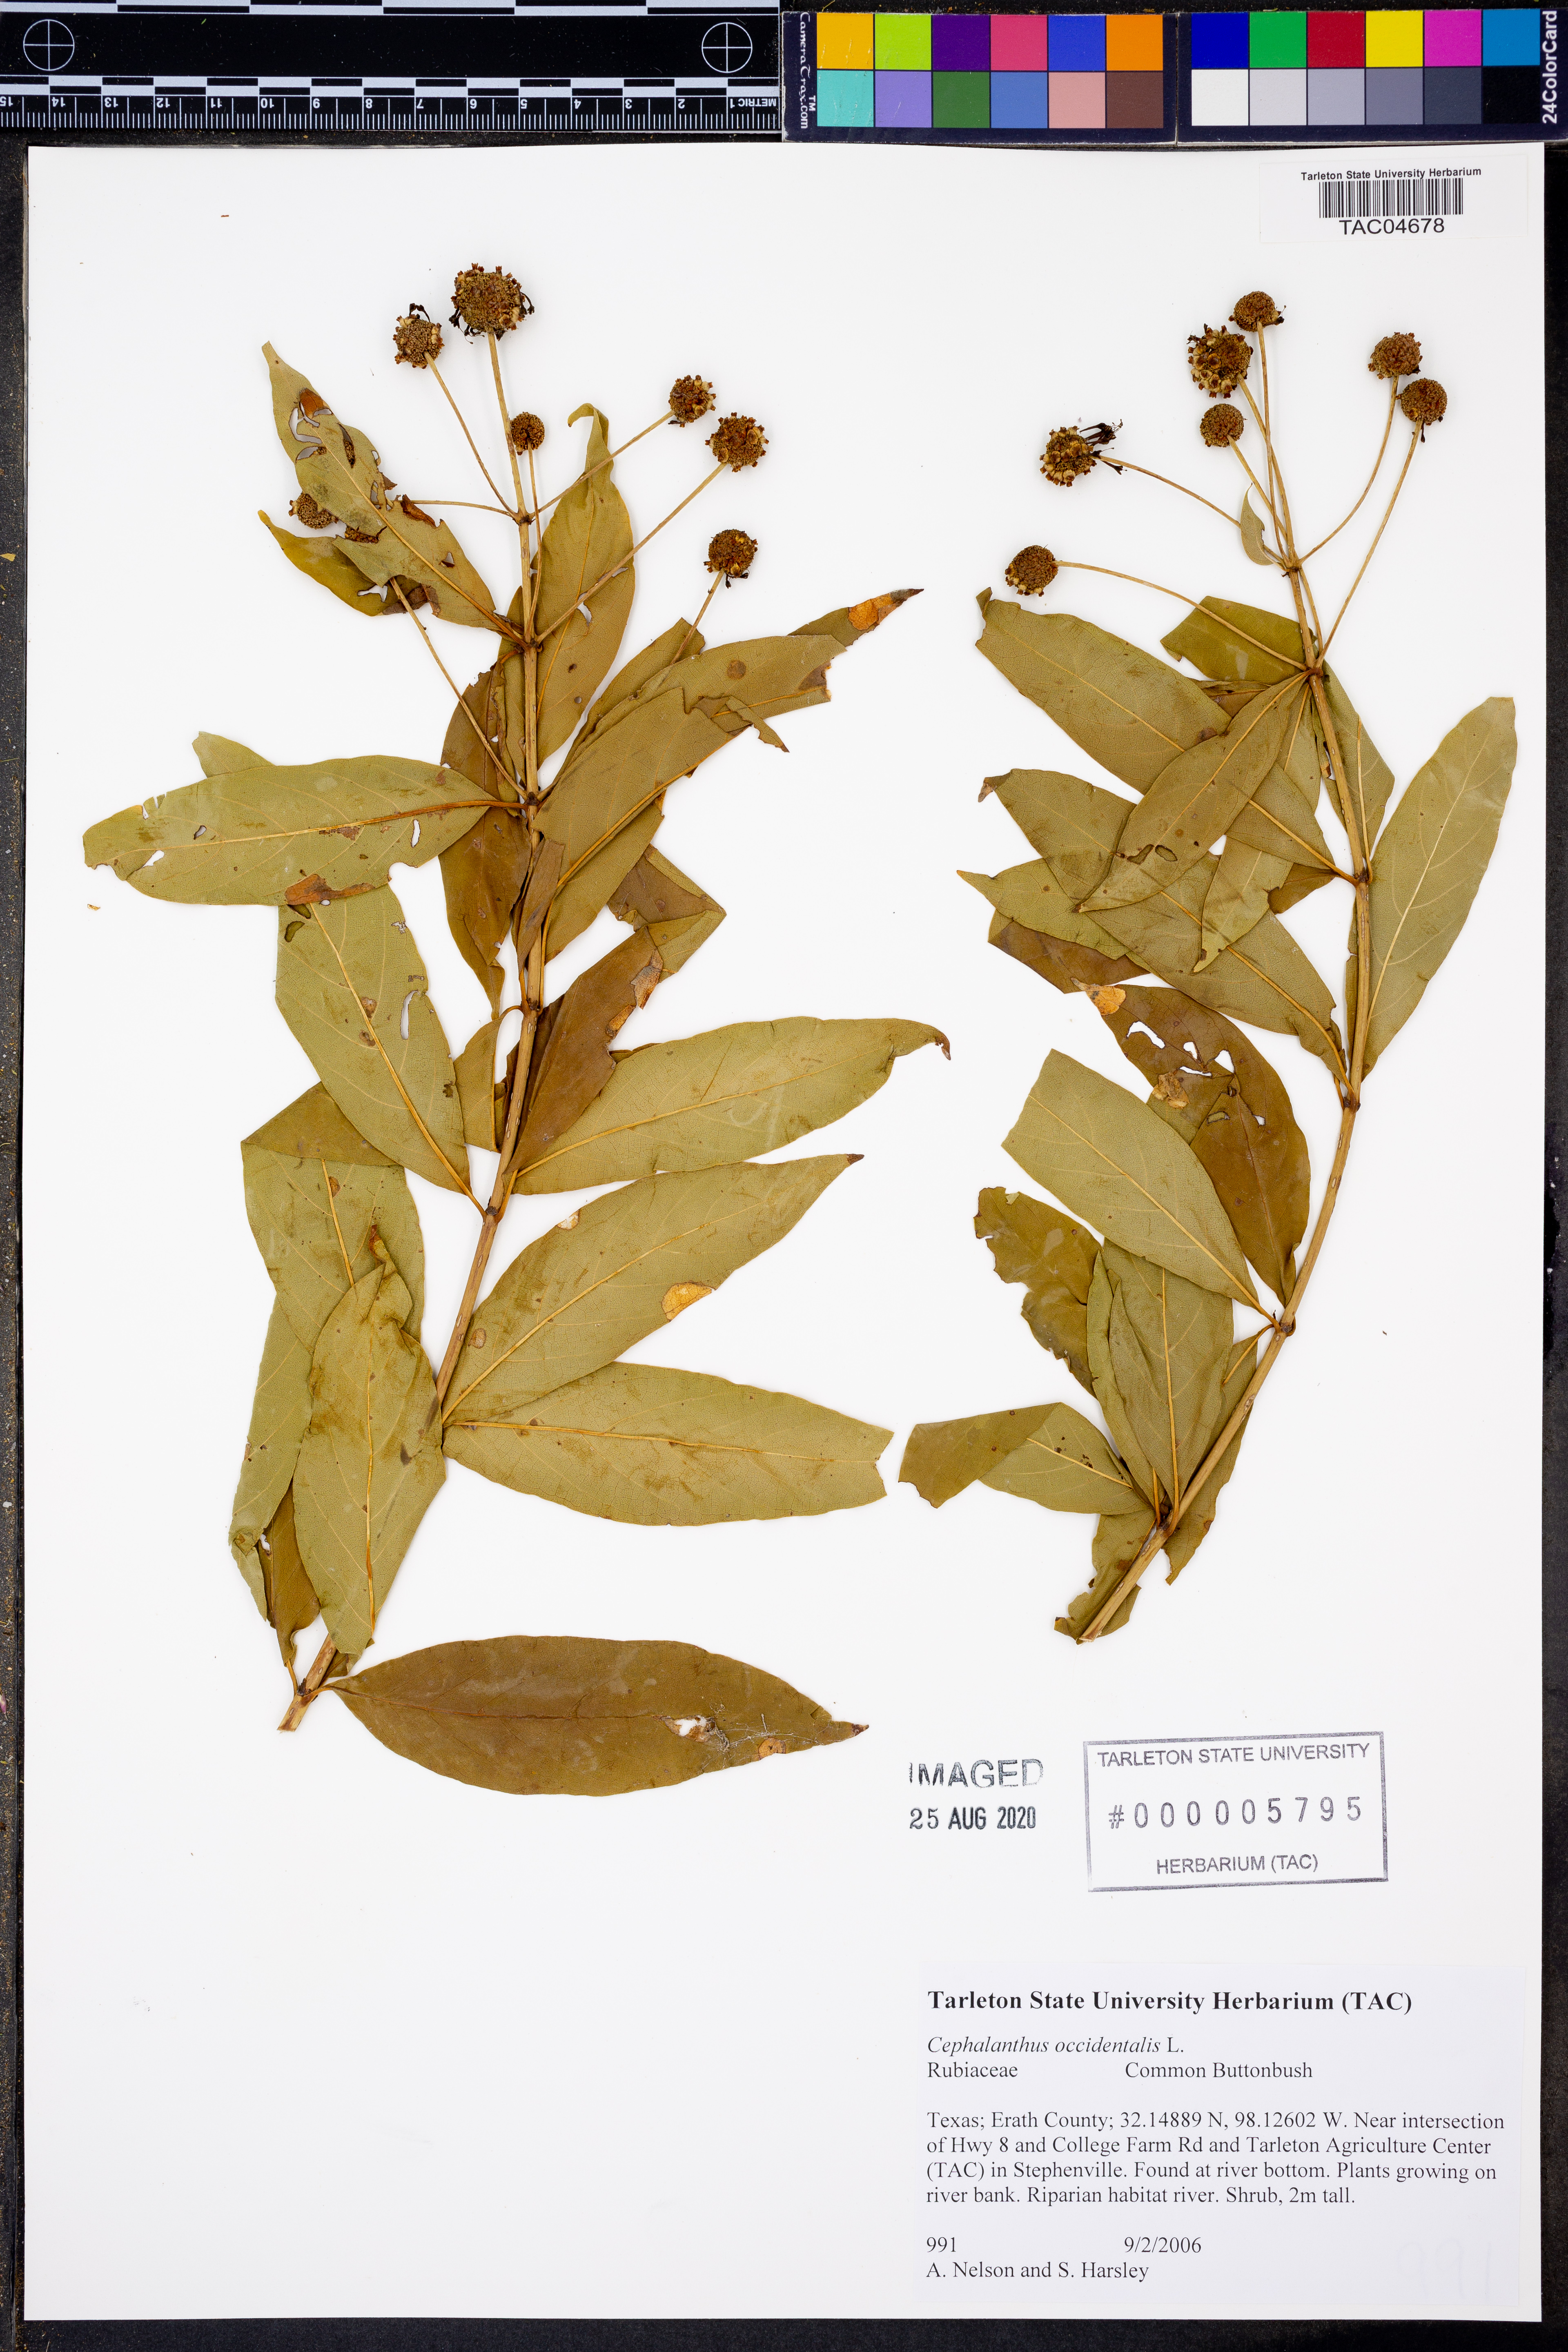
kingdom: Plantae
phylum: Tracheophyta
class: Magnoliopsida
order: Gentianales
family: Rubiaceae
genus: Cephalanthus
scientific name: Cephalanthus occidentalis
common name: Button-willow
